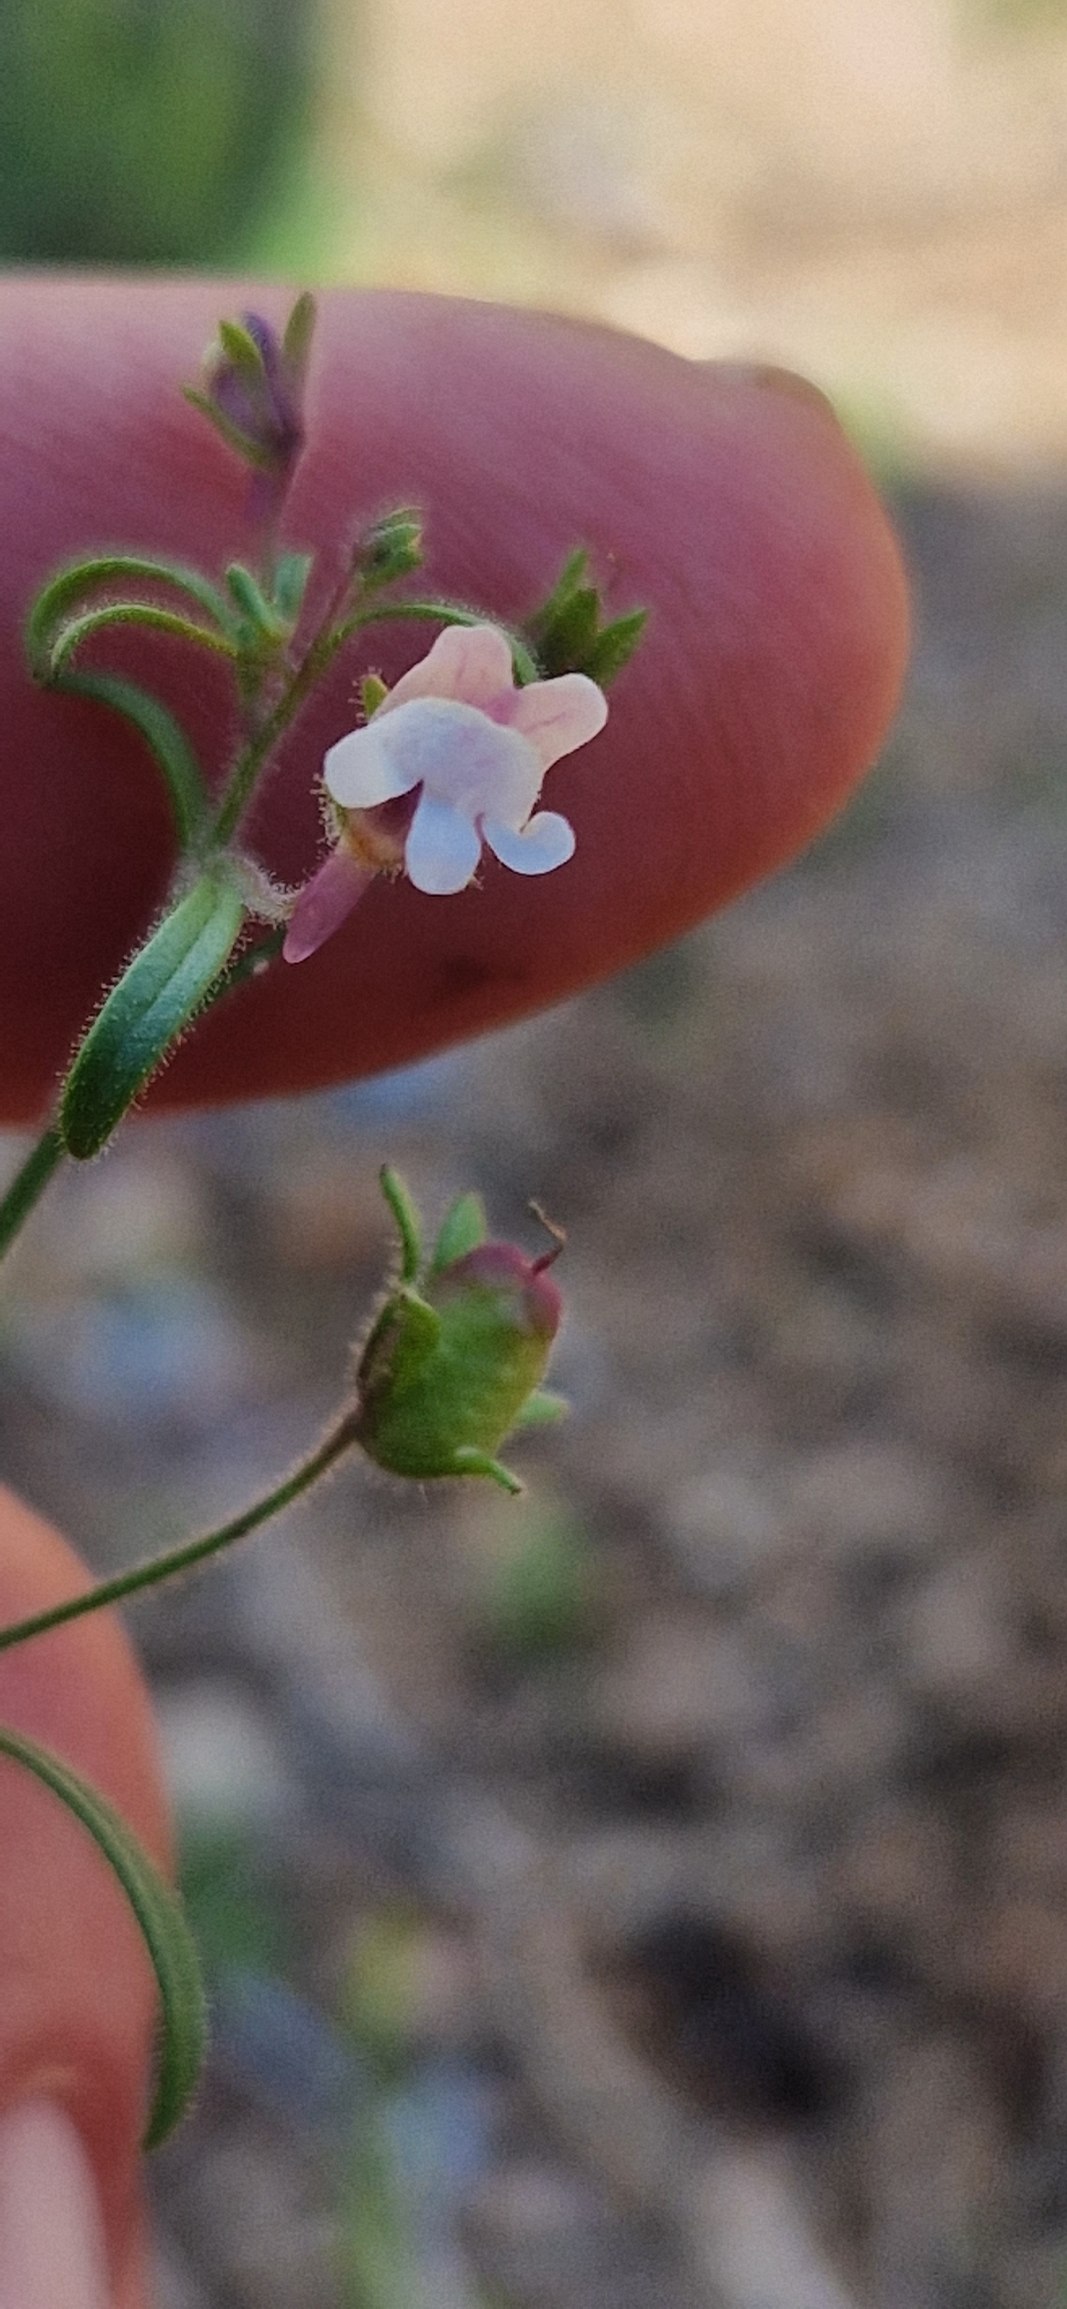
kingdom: Plantae
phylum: Tracheophyta
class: Magnoliopsida
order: Lamiales
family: Plantaginaceae
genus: Chaenorhinum
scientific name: Chaenorhinum minus
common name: Liden torskemund
